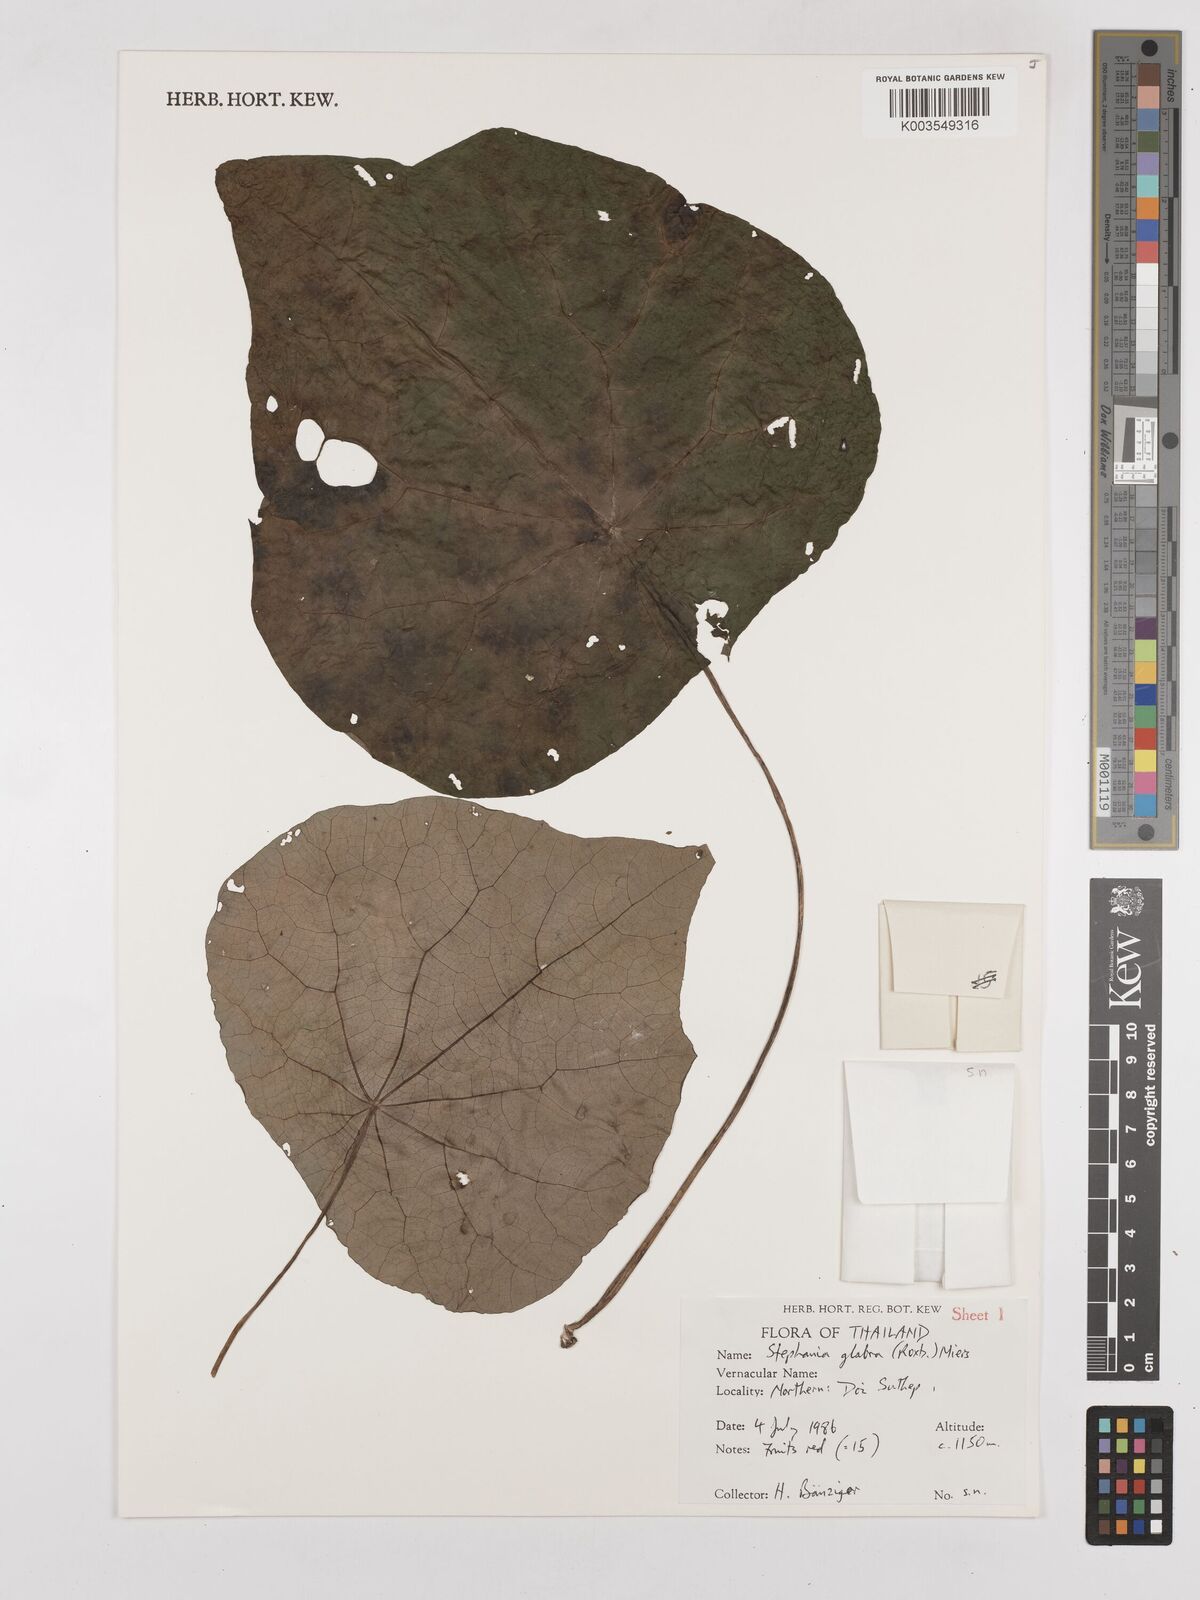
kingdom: Plantae
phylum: Tracheophyta
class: Magnoliopsida
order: Ranunculales
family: Menispermaceae
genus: Stephania
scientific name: Stephania rotunda
